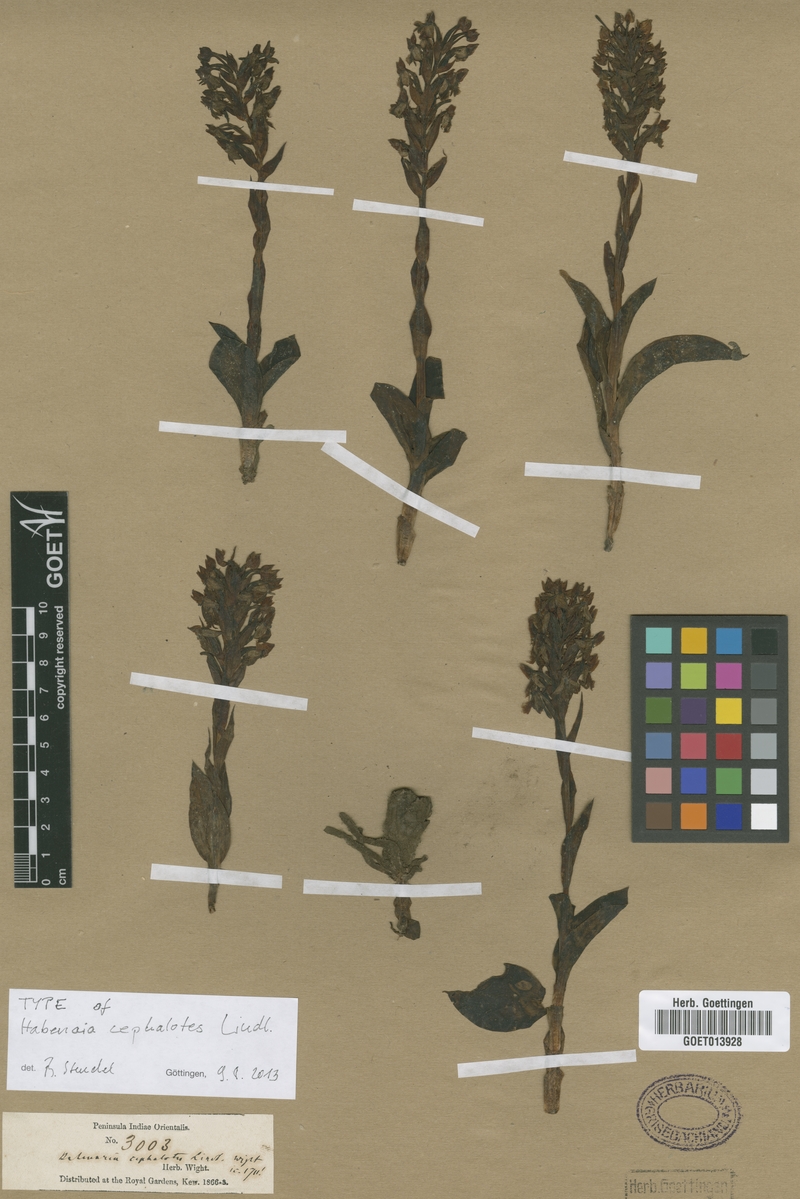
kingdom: Plantae
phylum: Tracheophyta
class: Liliopsida
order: Asparagales
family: Orchidaceae
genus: Habenaria
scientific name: Habenaria cephalotes
